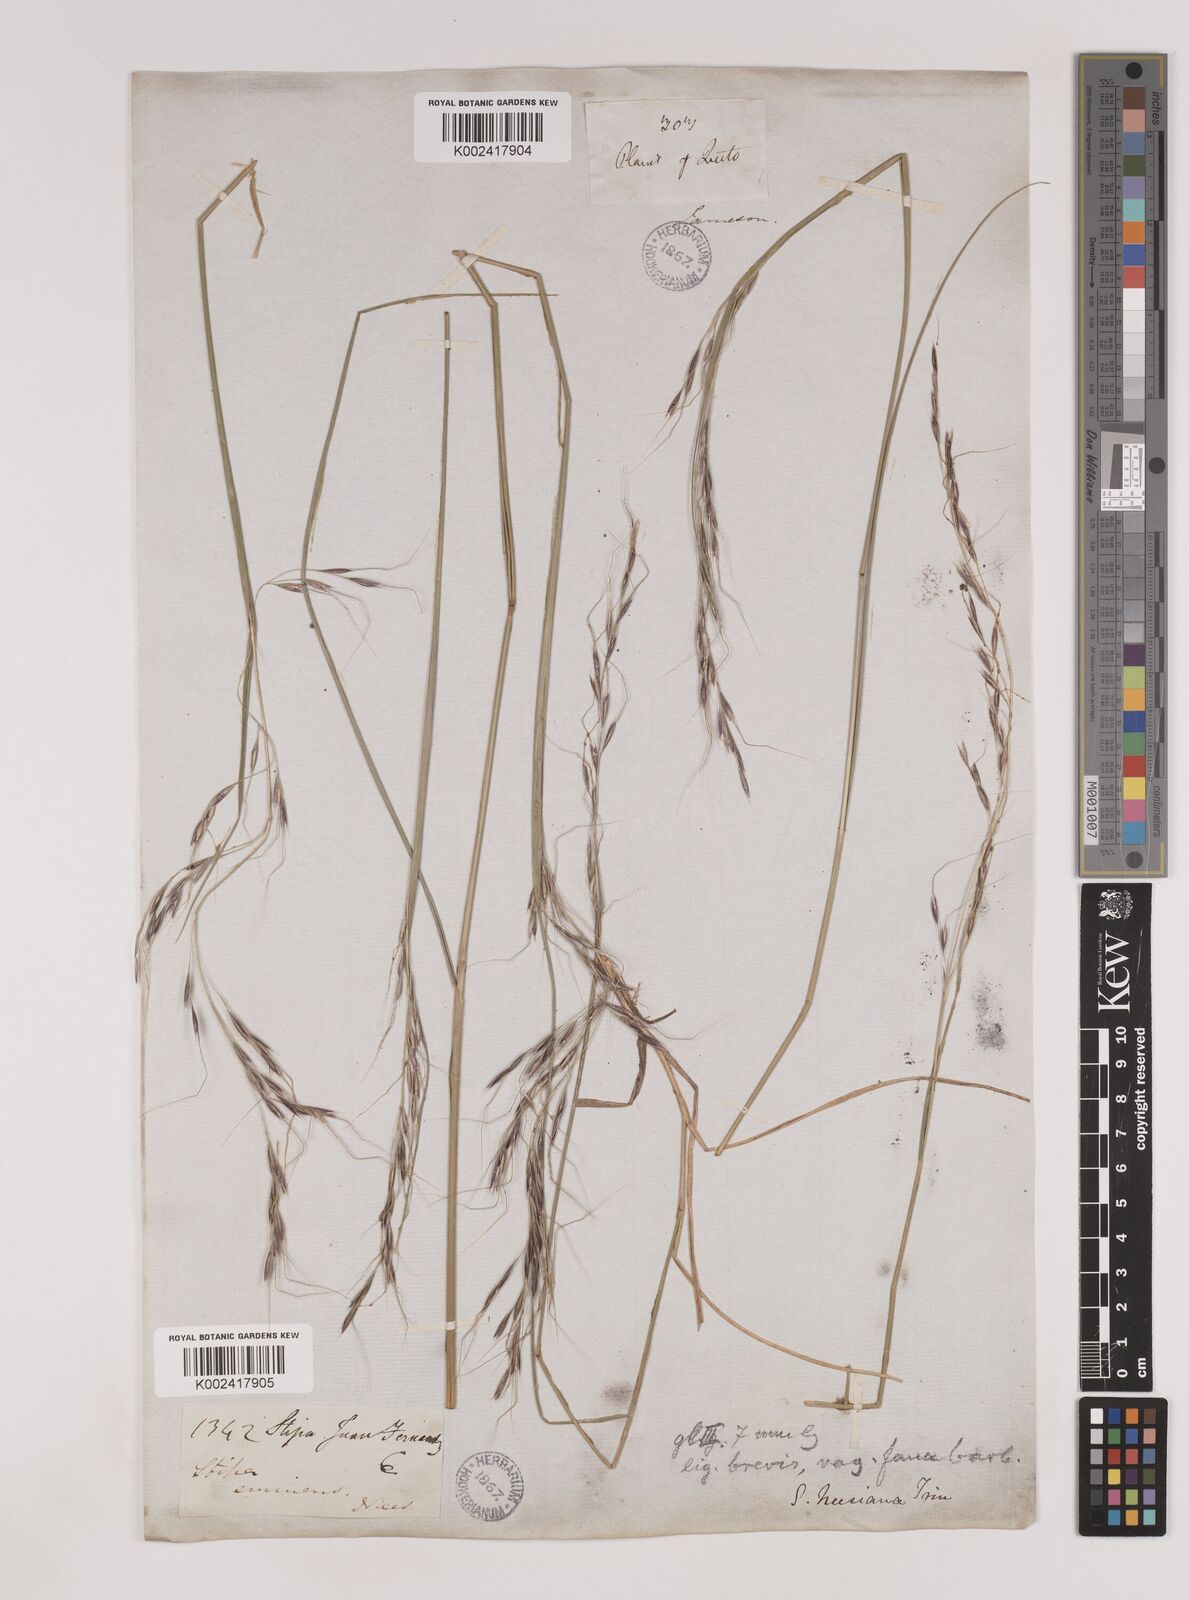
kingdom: Plantae
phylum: Tracheophyta
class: Liliopsida
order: Poales
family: Poaceae
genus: Nassella
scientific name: Nassella neesiana
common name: American needle-grass
